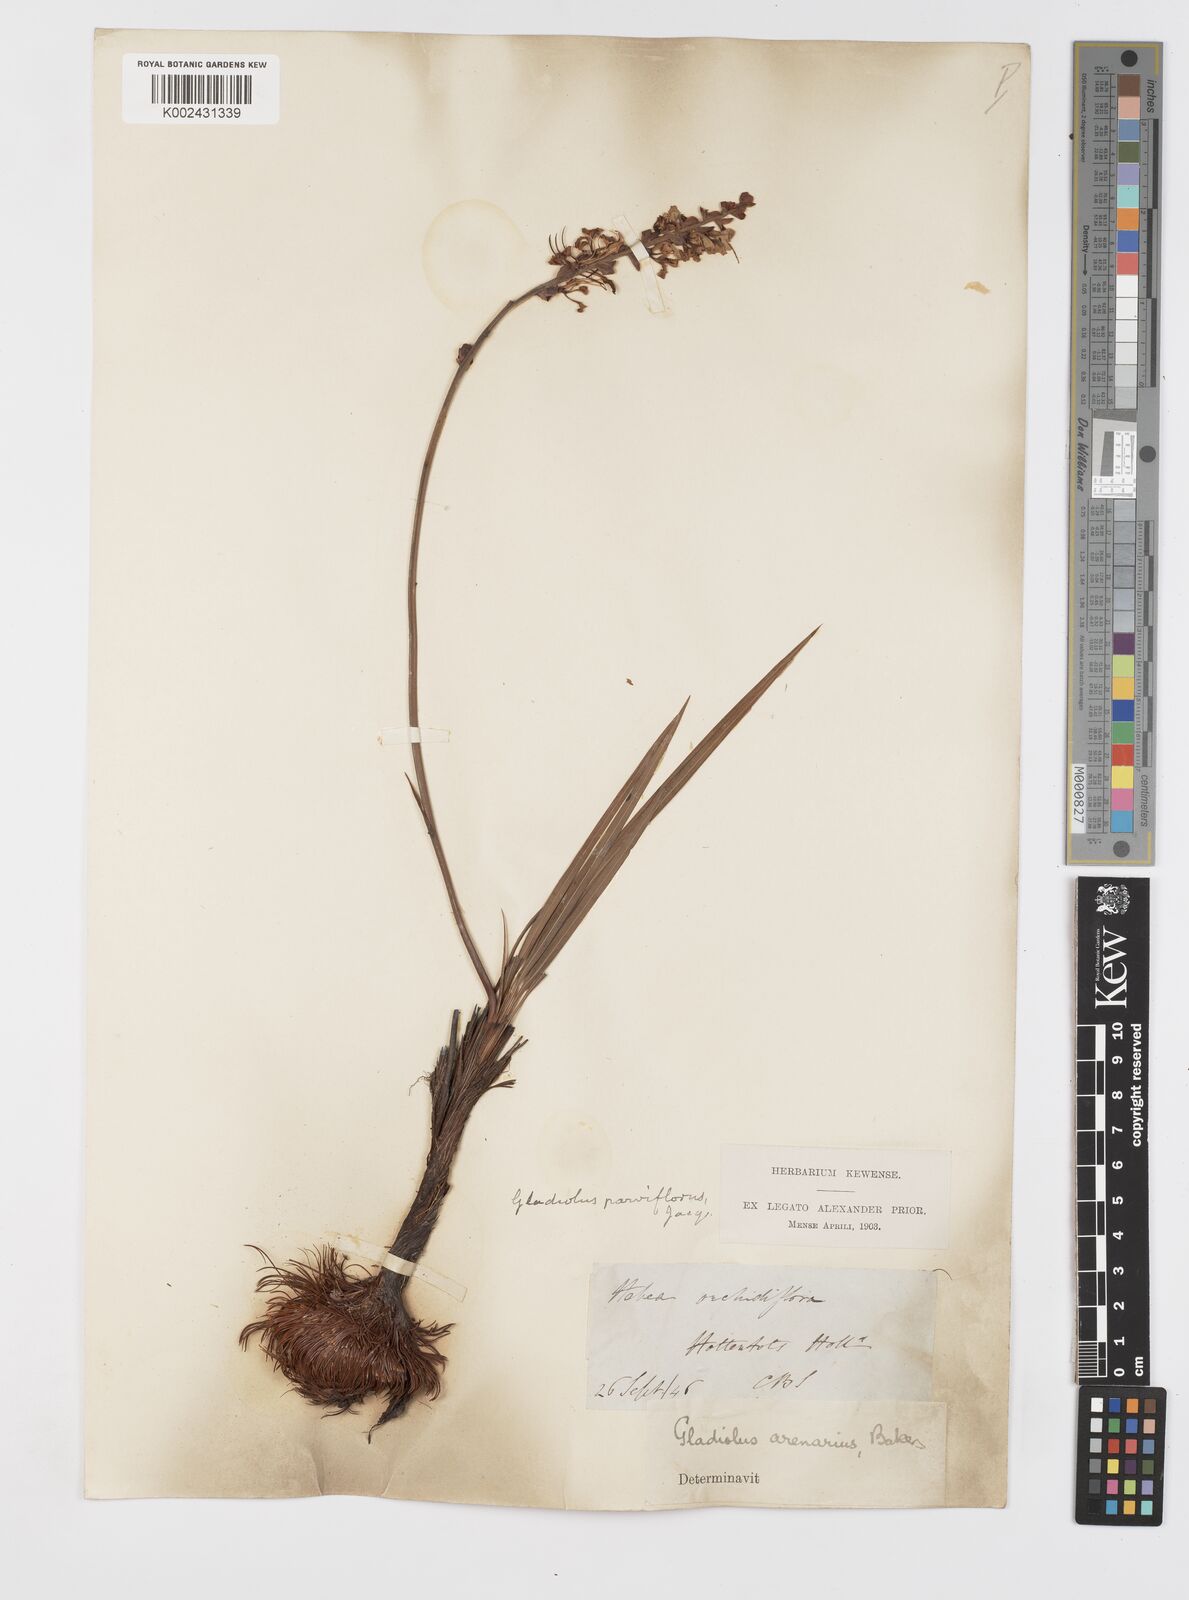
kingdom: Plantae
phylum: Tracheophyta
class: Liliopsida
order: Asparagales
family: Iridaceae
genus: Tritoniopsis
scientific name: Tritoniopsis parviflora
